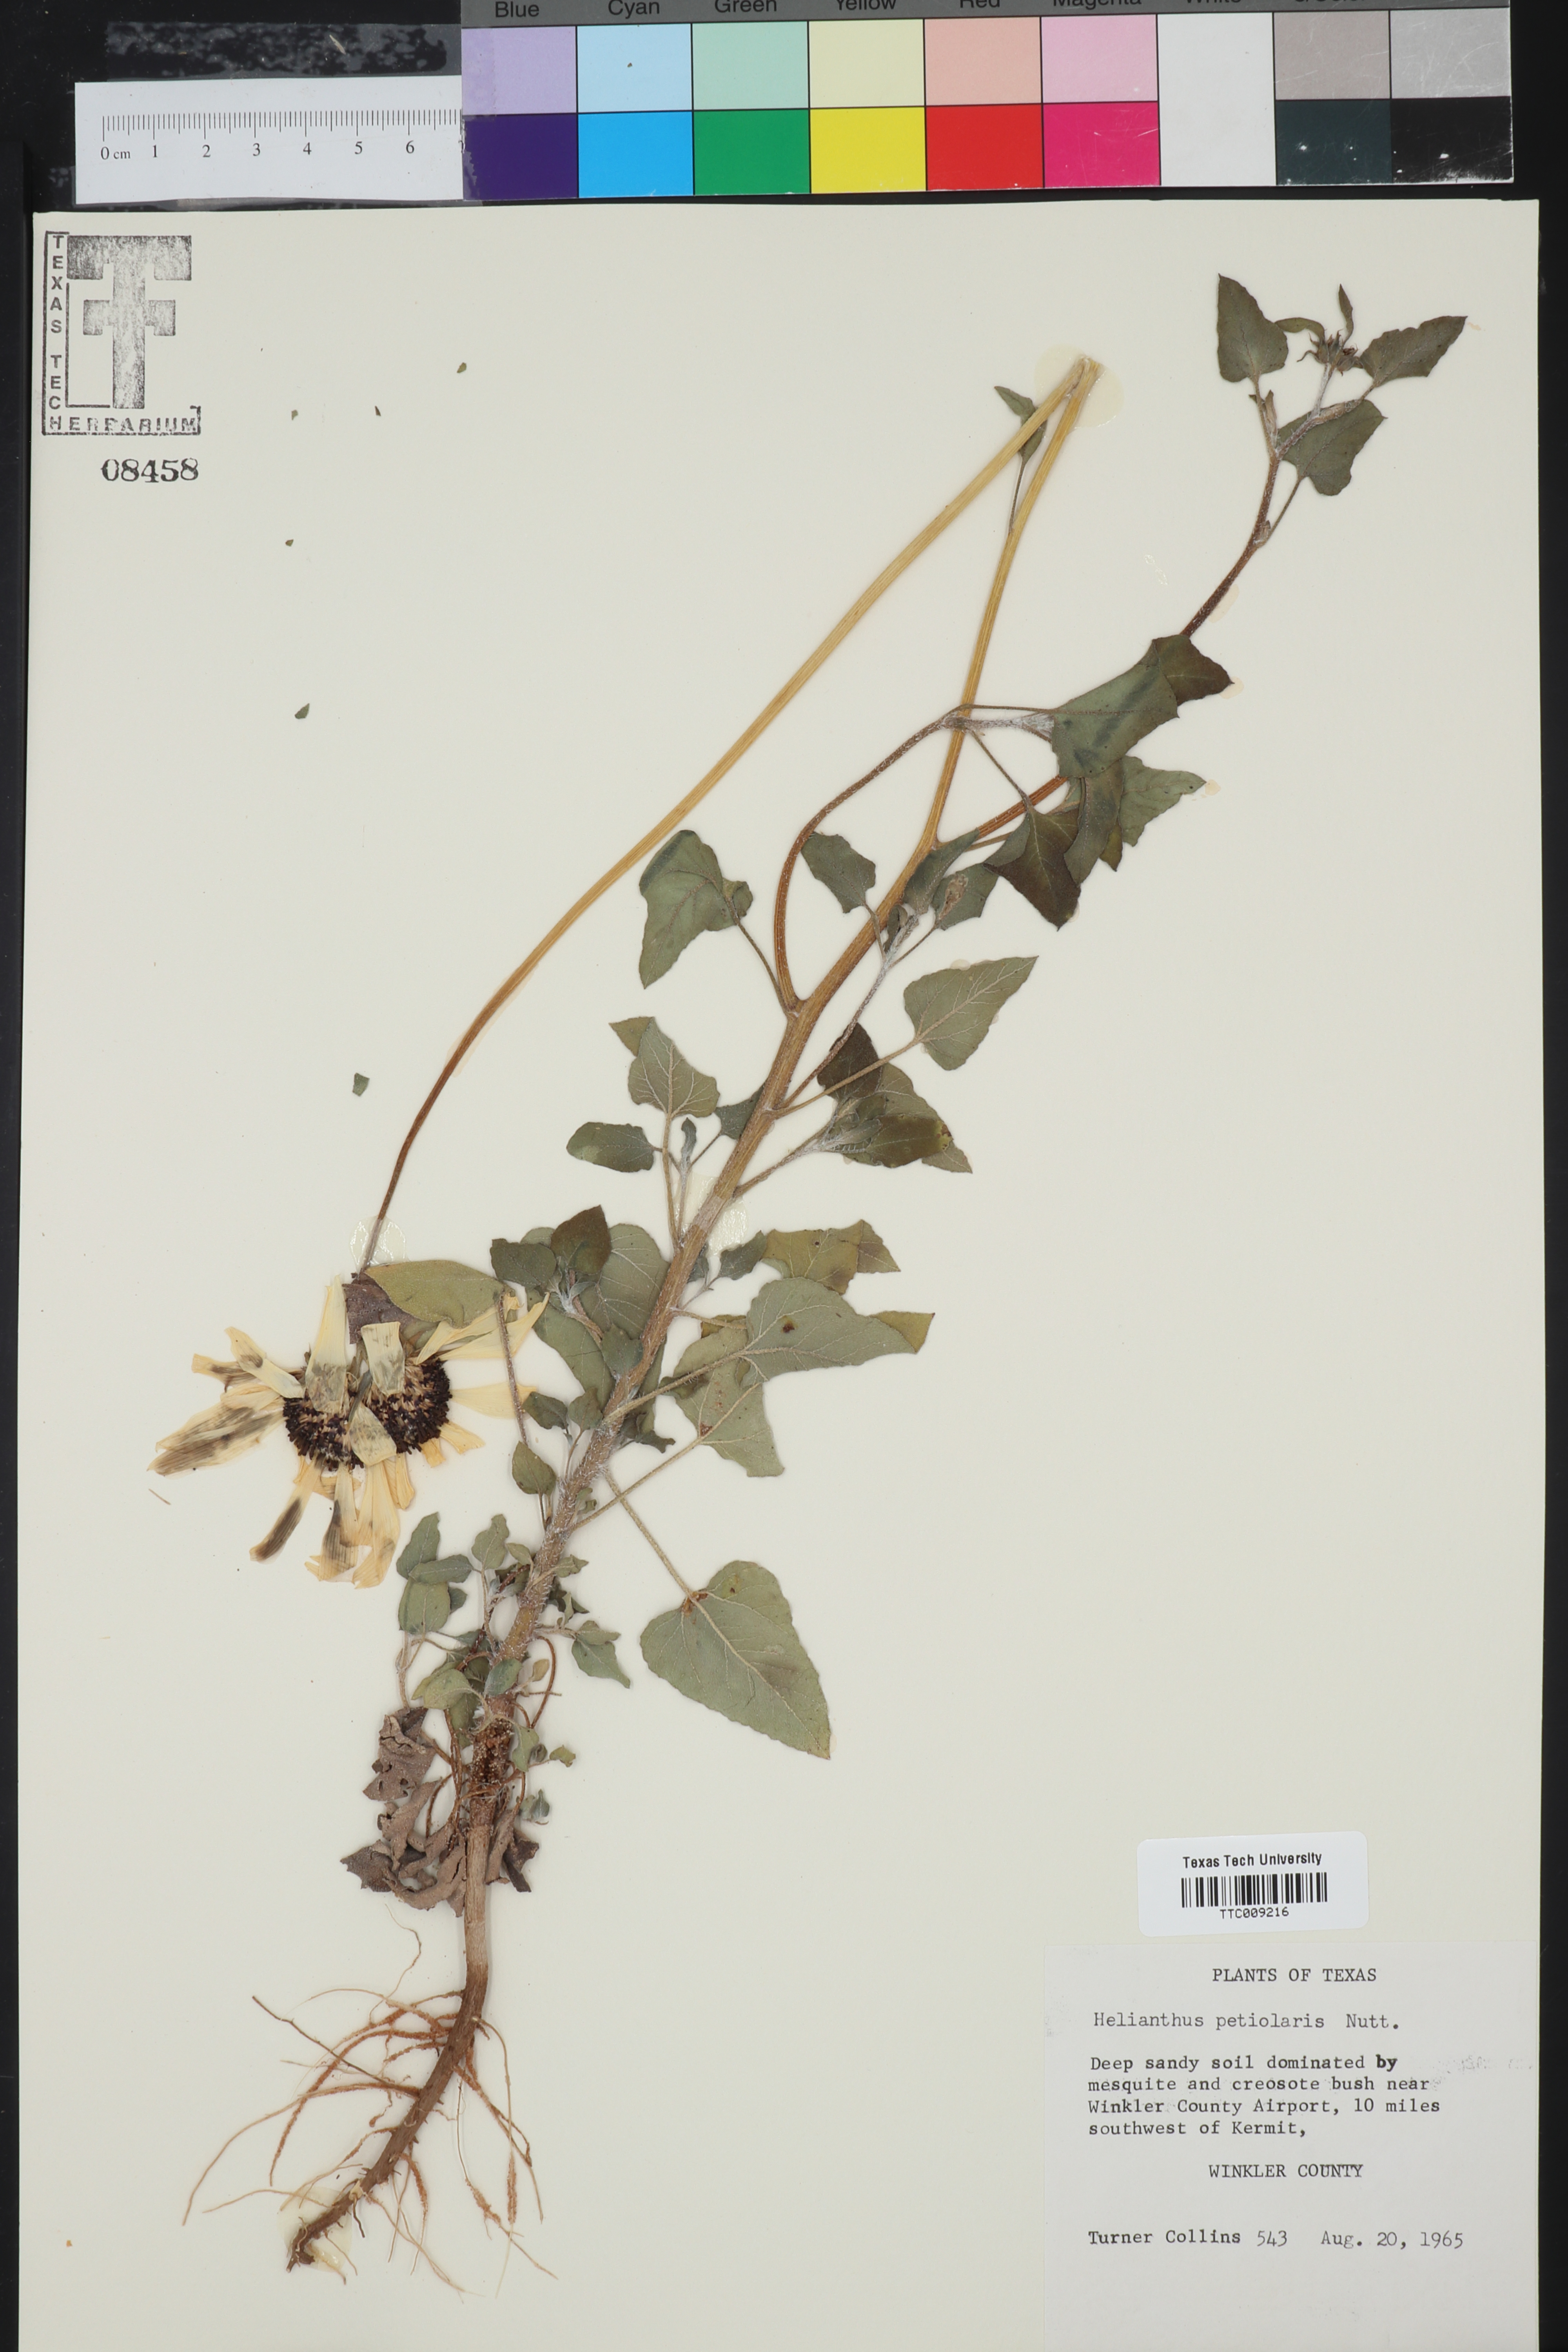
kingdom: Plantae
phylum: Tracheophyta
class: Magnoliopsida
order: Asterales
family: Asteraceae
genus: Helianthus
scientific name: Helianthus petiolaris
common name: Lesser sunflower
